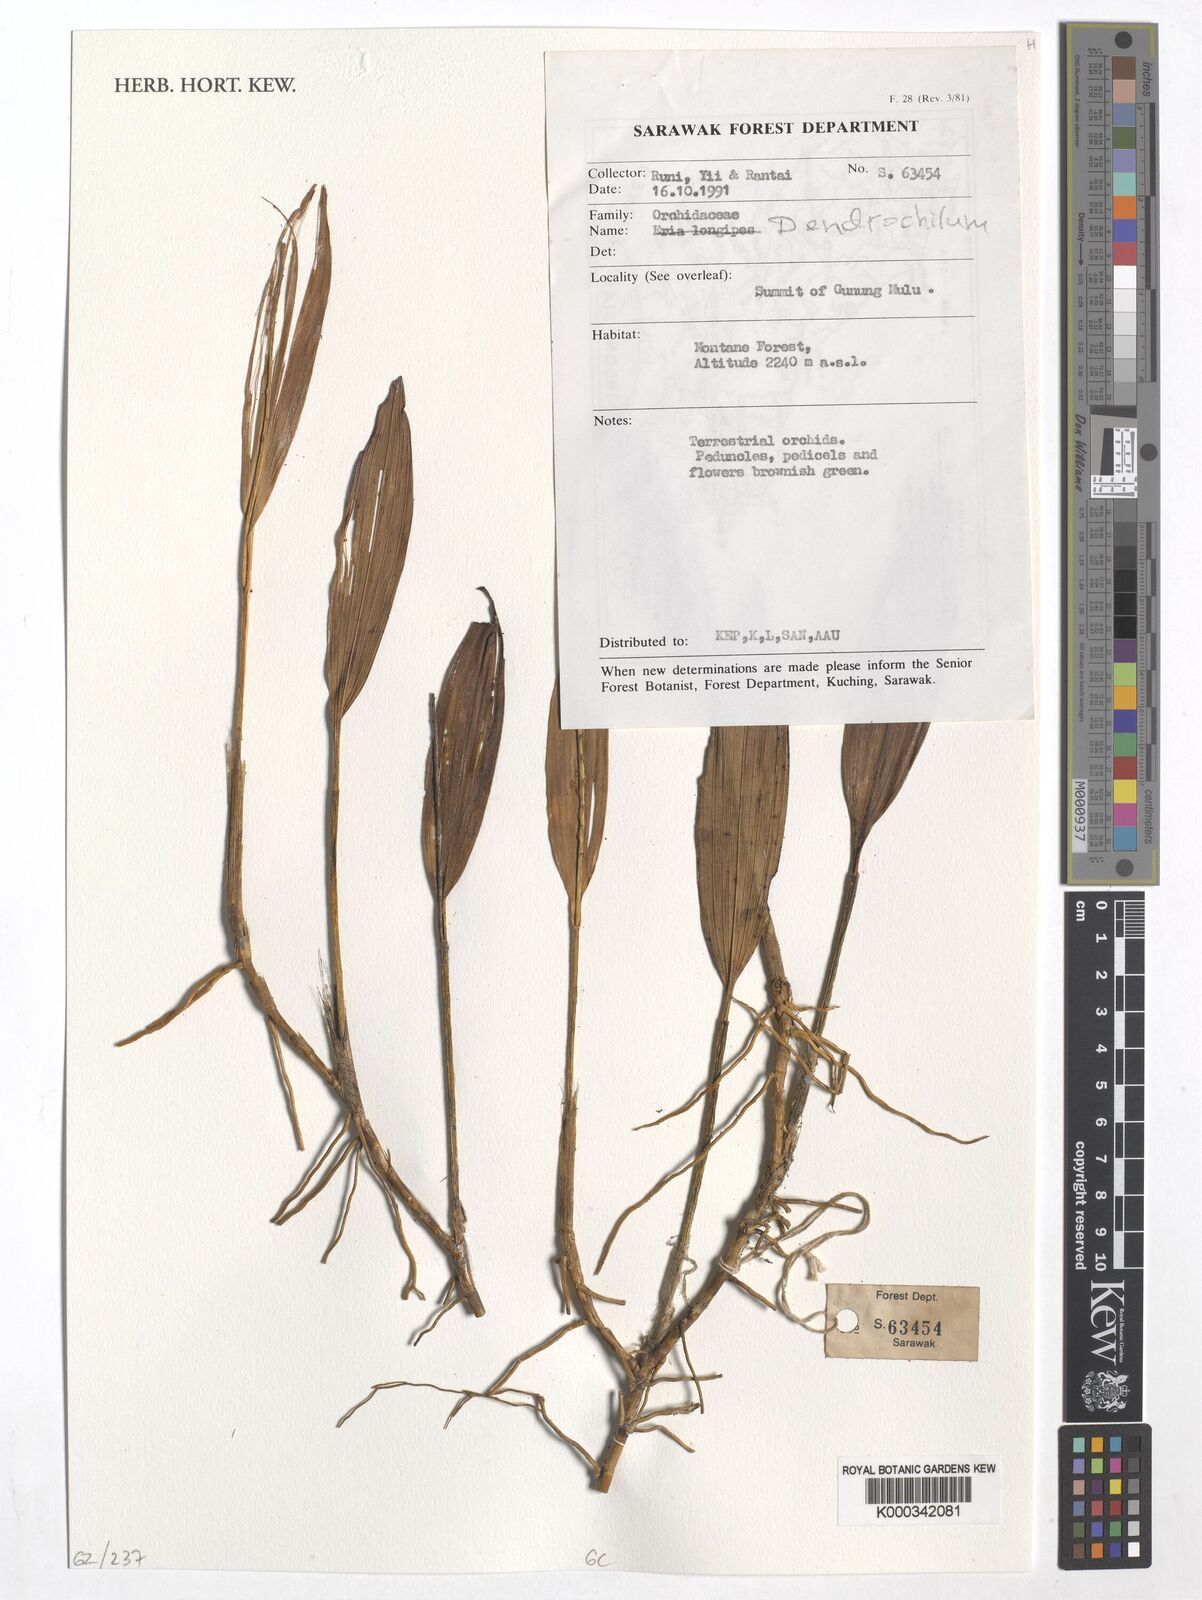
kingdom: Plantae
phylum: Tracheophyta
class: Liliopsida
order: Asparagales
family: Orchidaceae
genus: Coelogyne
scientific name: Coelogyne
